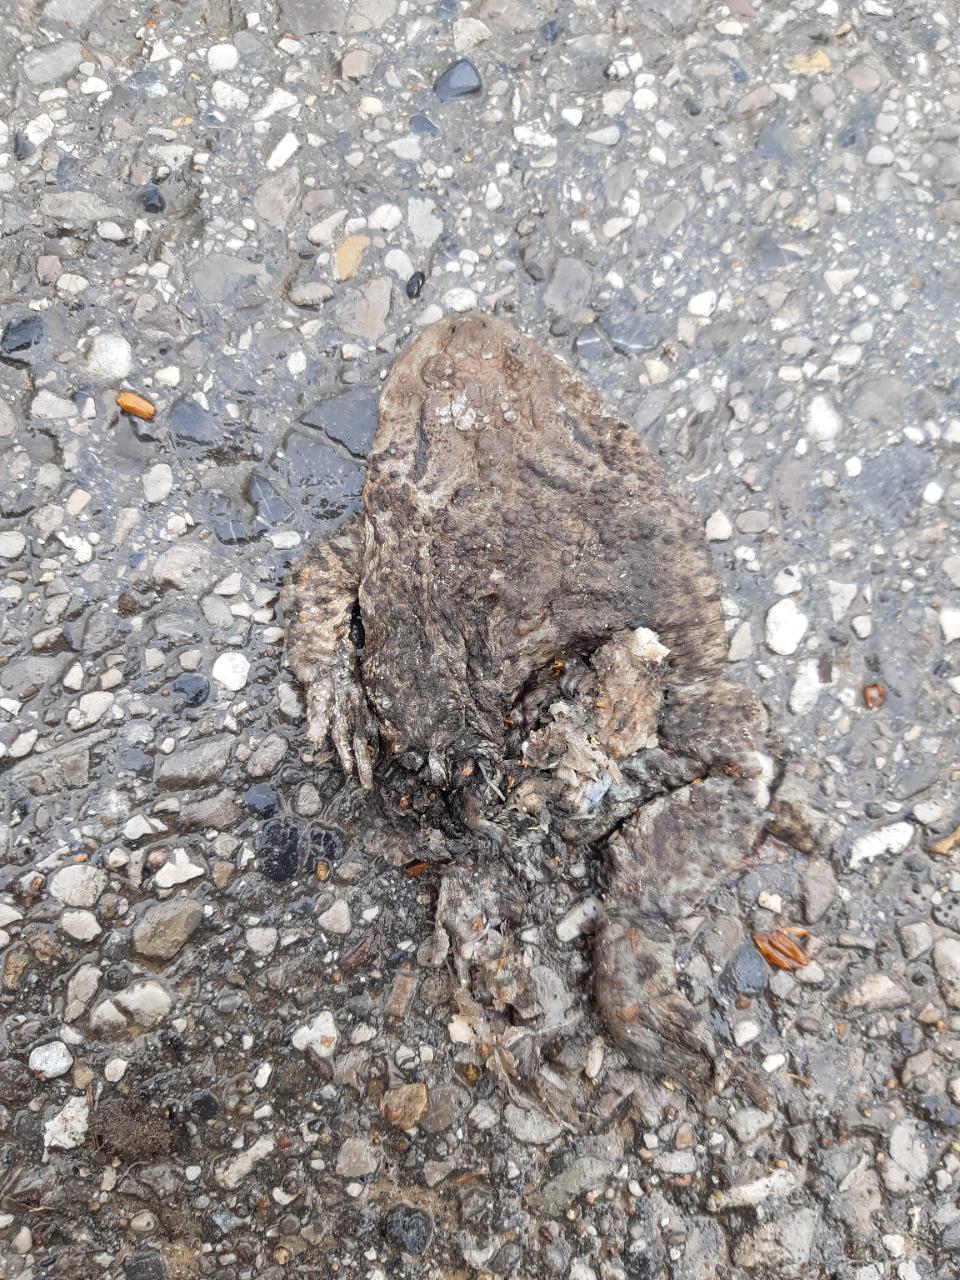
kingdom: Animalia
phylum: Chordata
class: Amphibia
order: Anura
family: Bufonidae
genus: Bufo
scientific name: Bufo bufo
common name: Common toad
